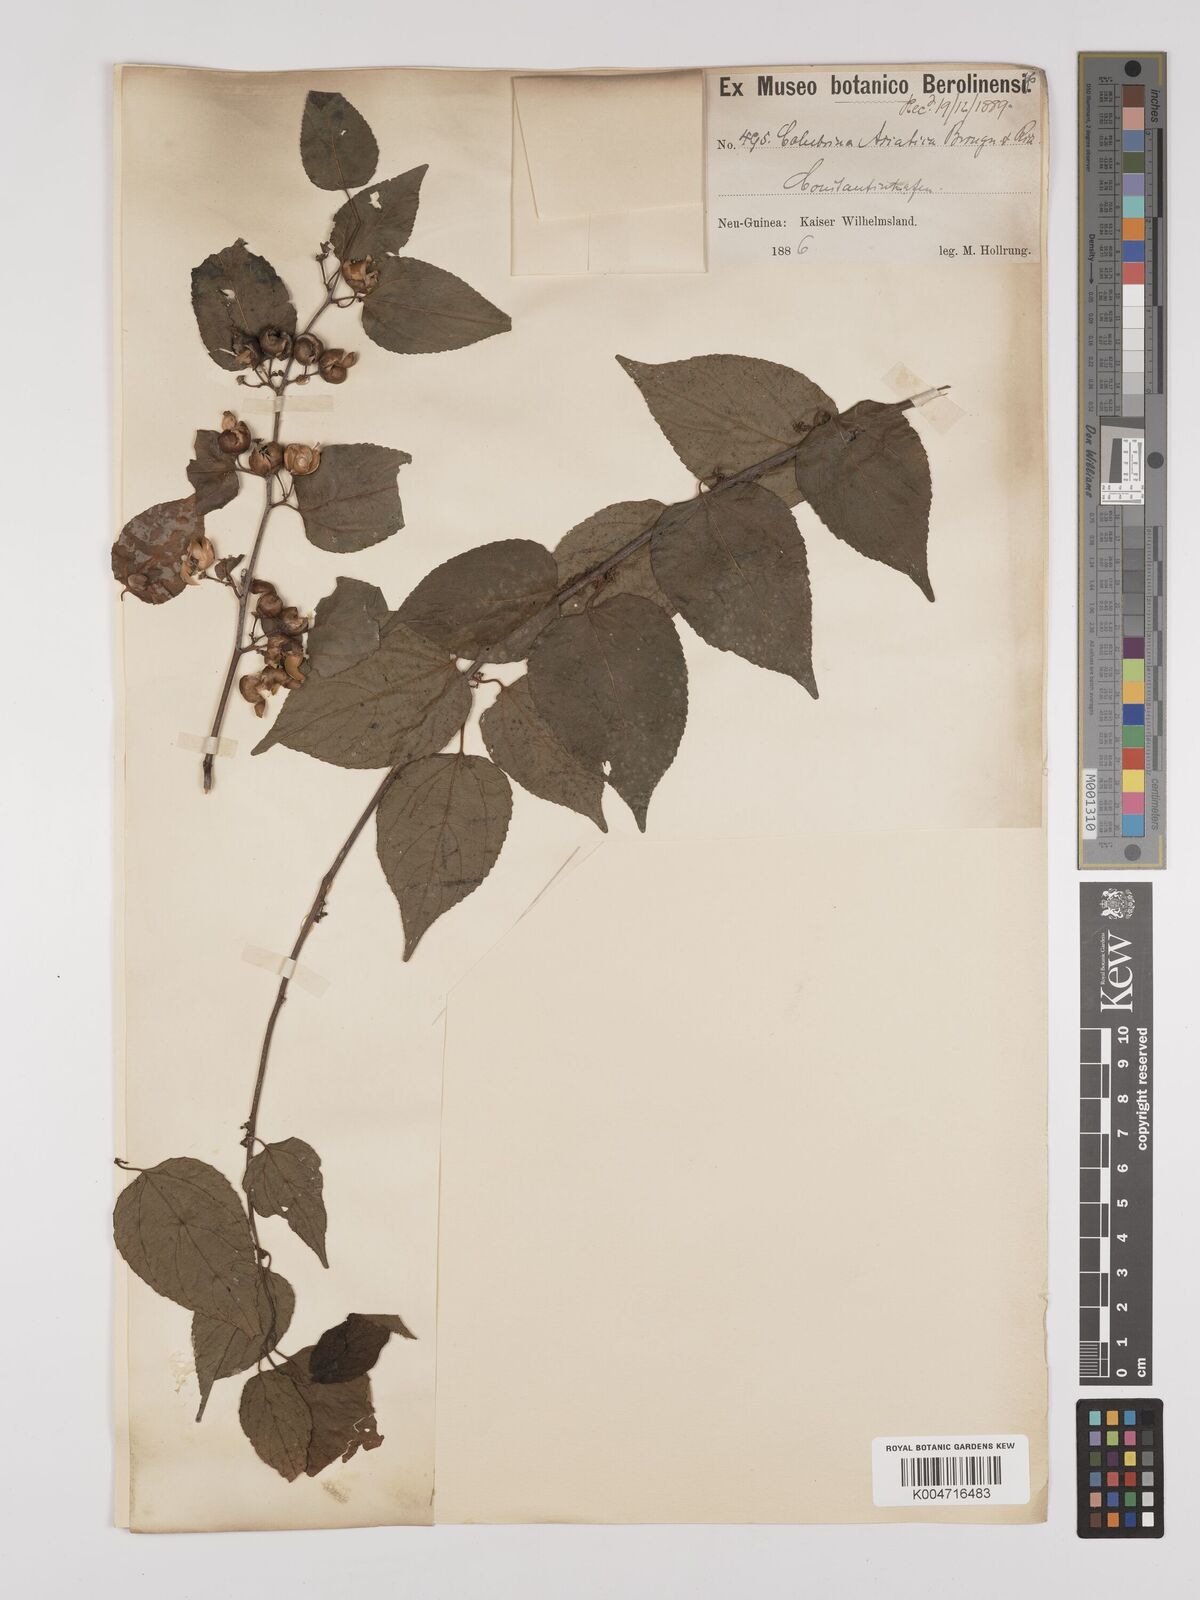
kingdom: Plantae
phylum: Tracheophyta
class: Magnoliopsida
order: Rosales
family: Rhamnaceae
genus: Colubrina
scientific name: Colubrina asiatica
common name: Asian nakedwood
